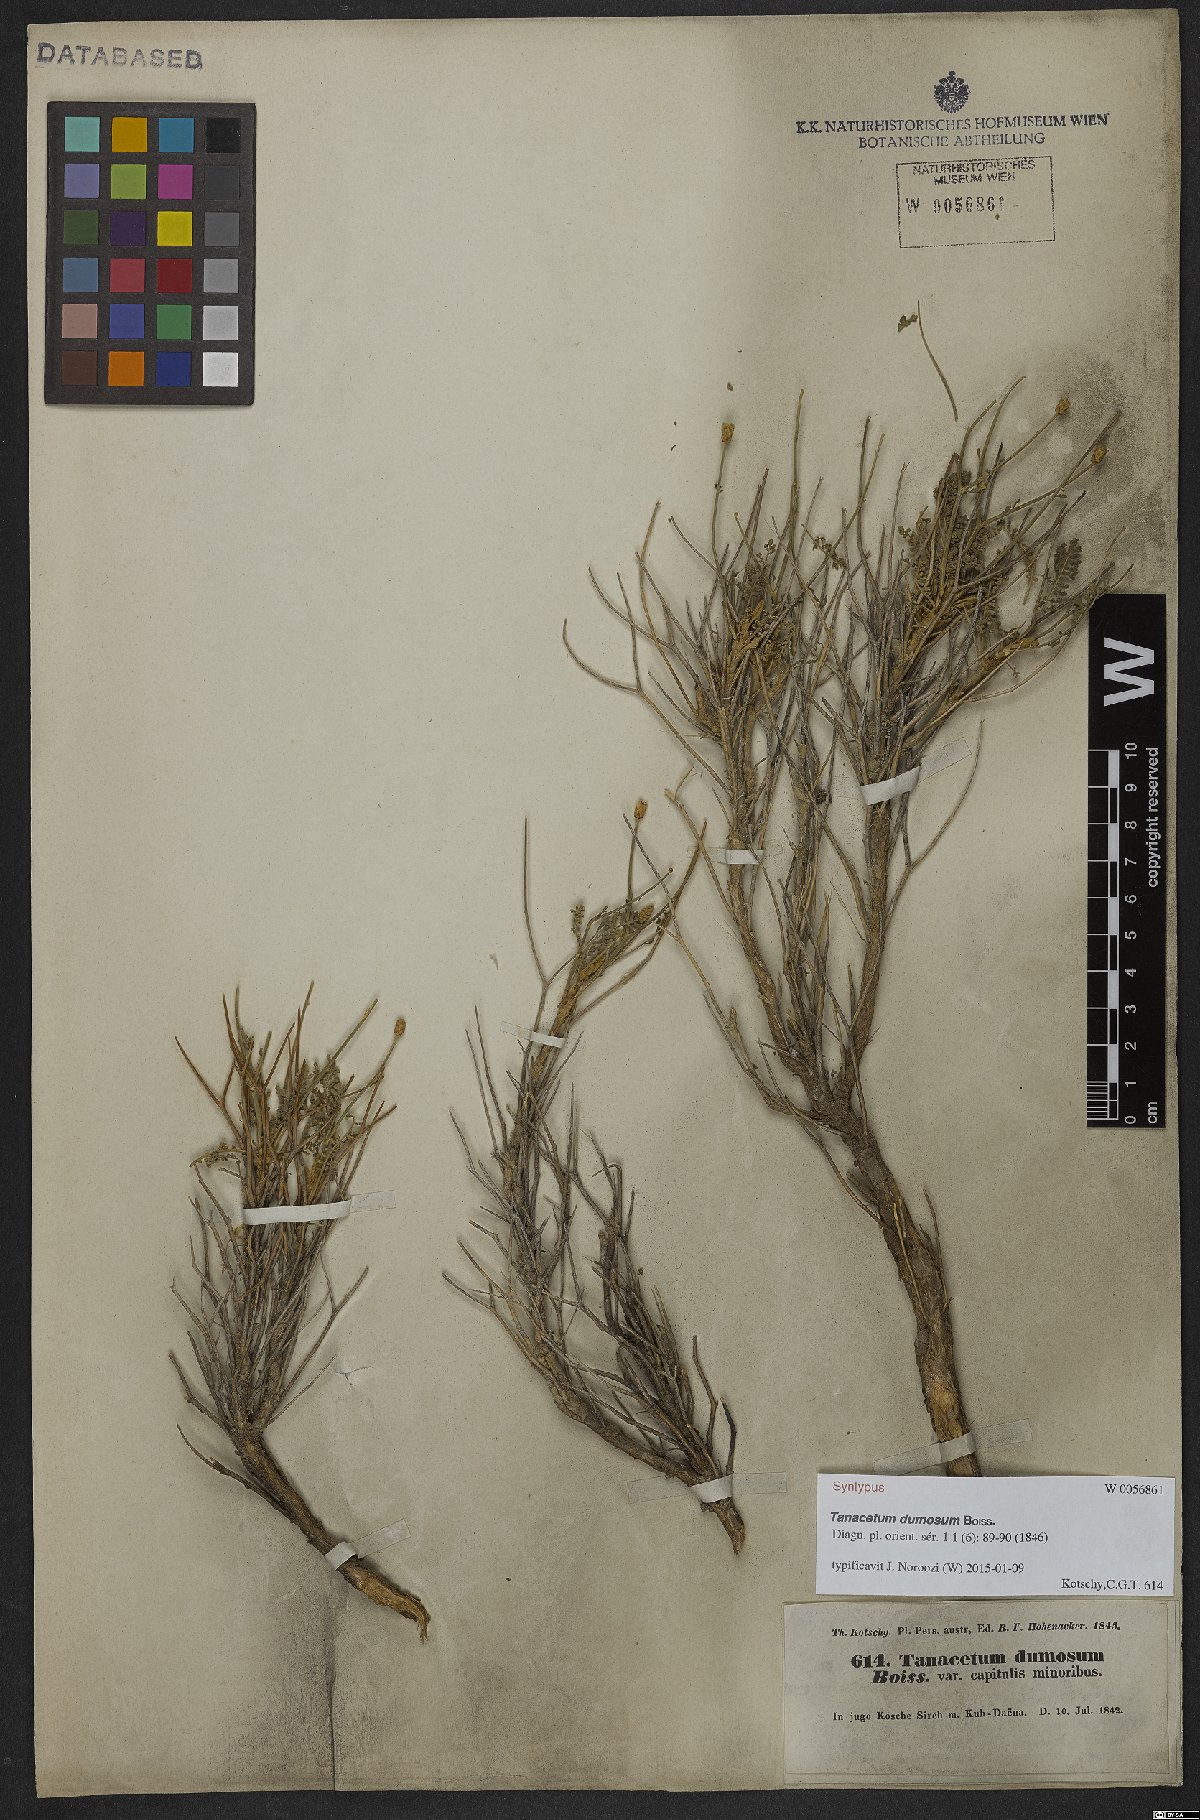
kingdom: Plantae
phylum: Tracheophyta
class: Magnoliopsida
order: Asterales
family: Asteraceae
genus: Tanacetum
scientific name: Tanacetum dumosum
